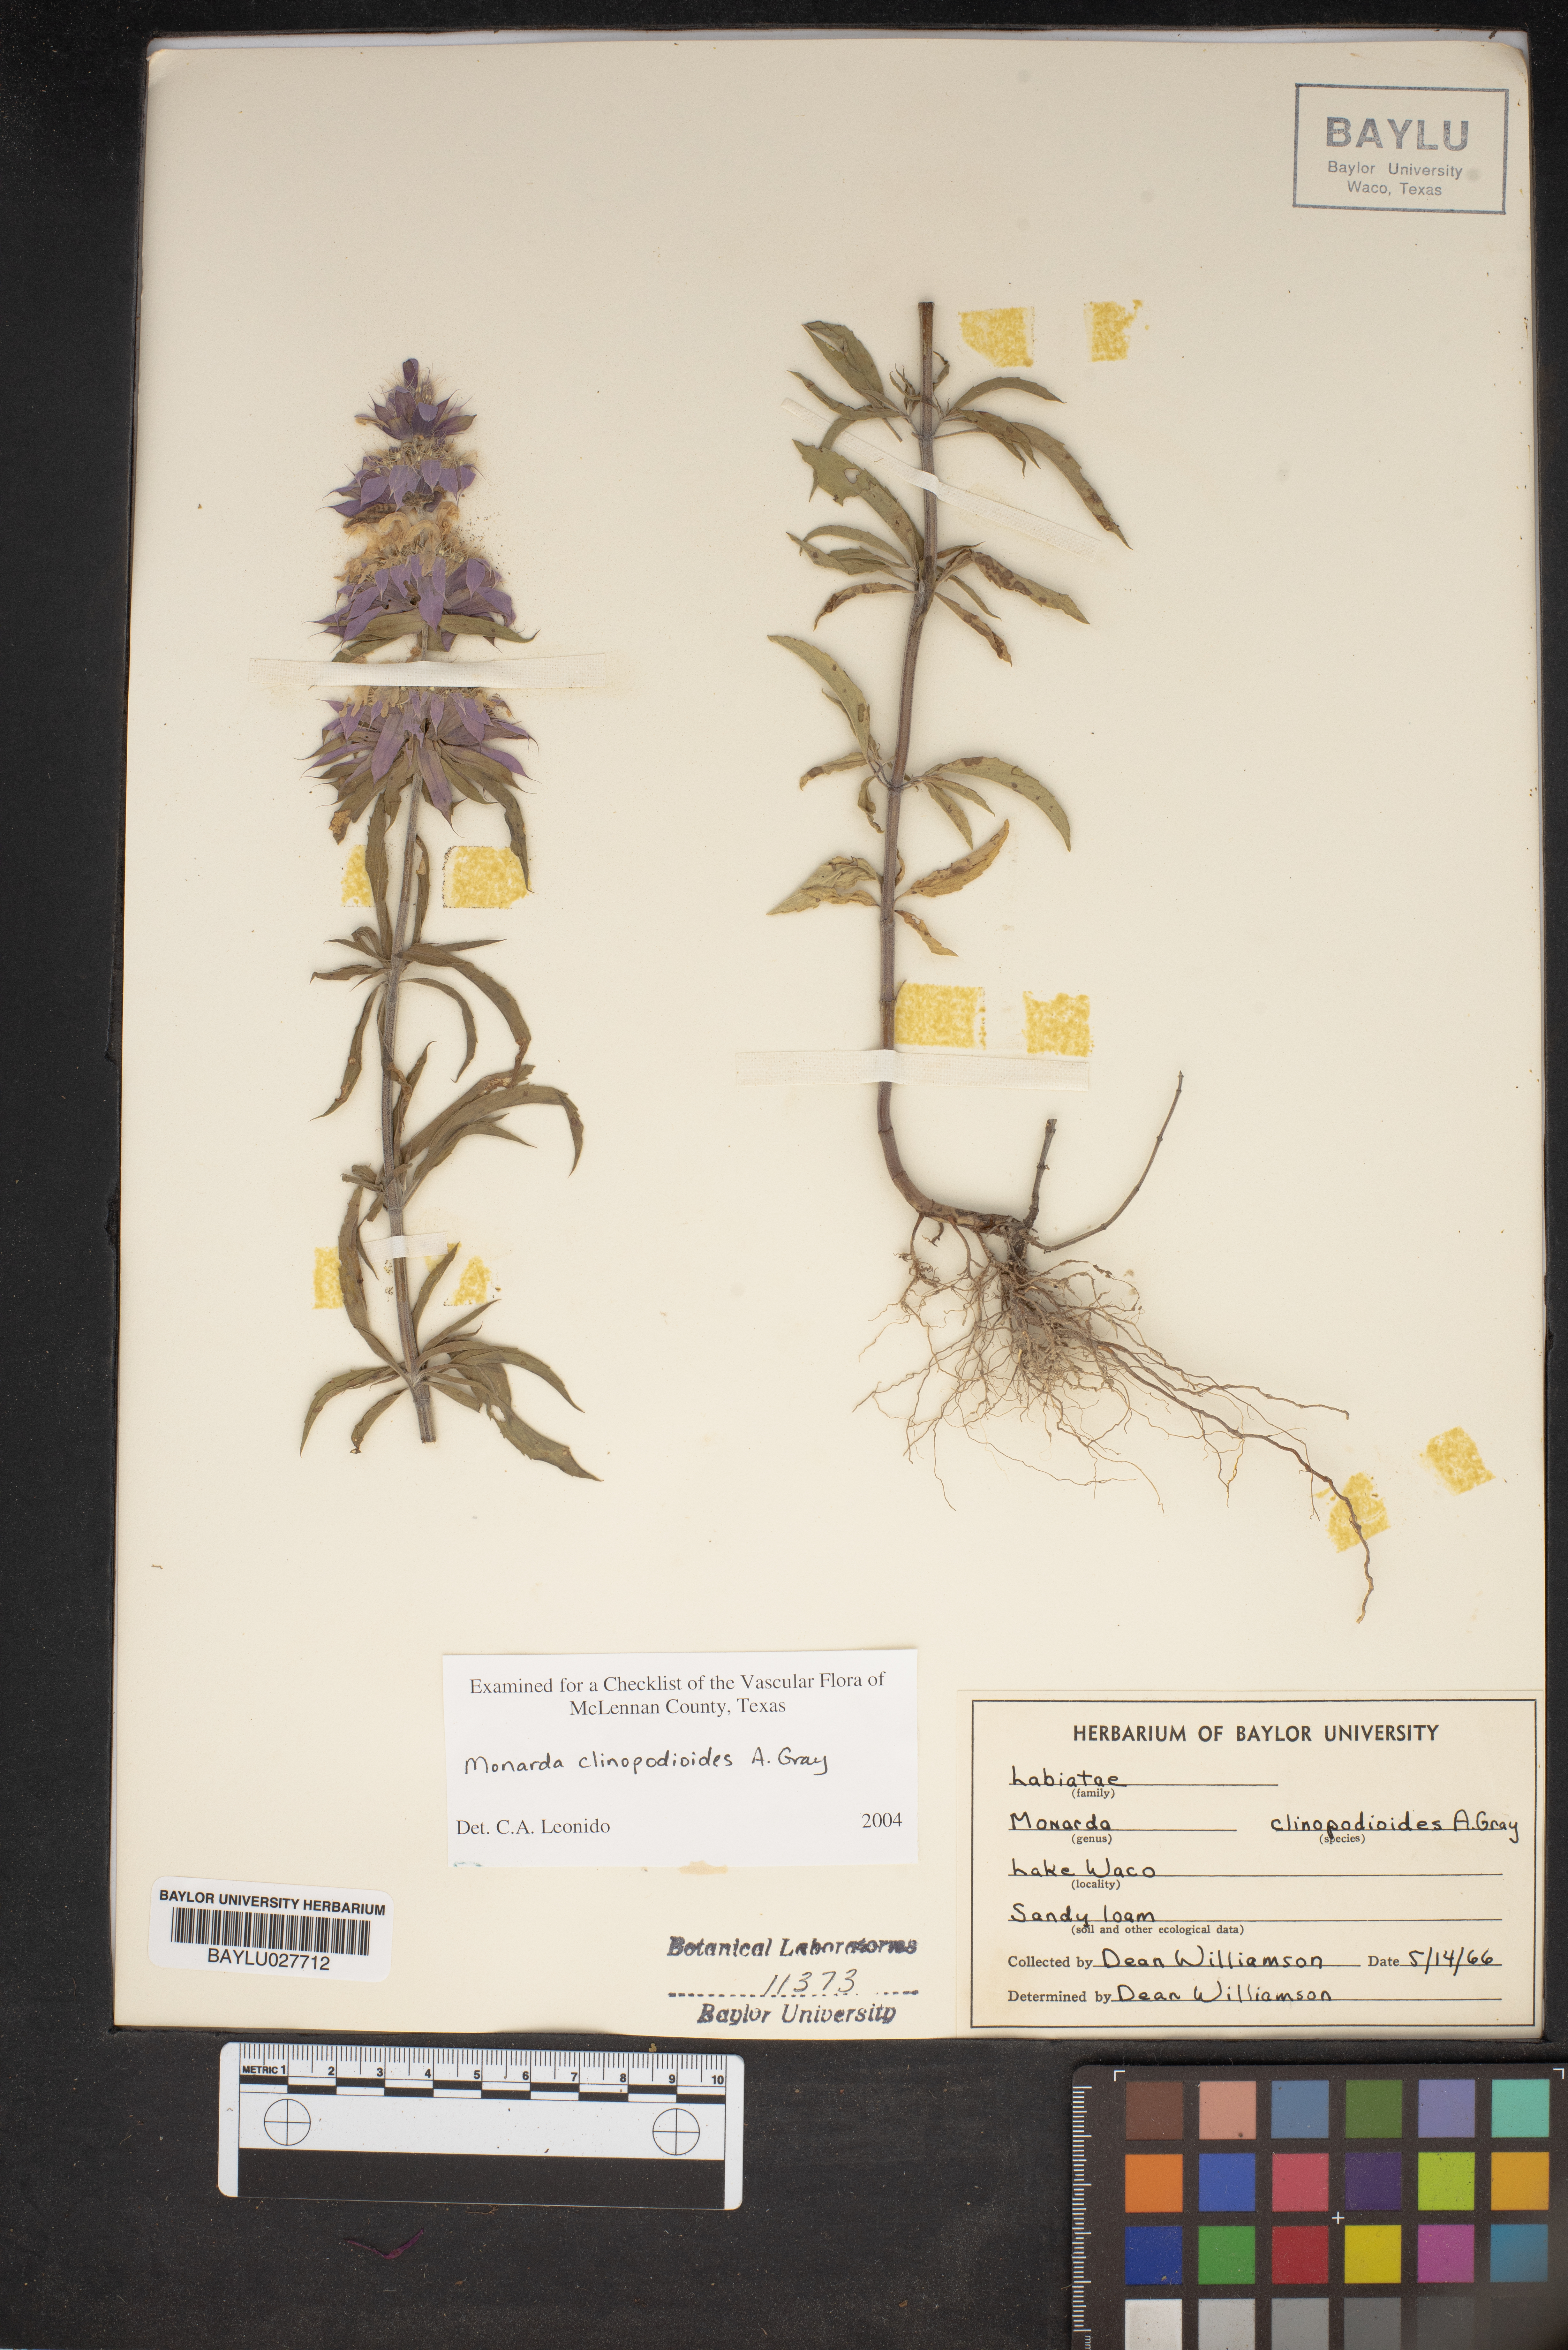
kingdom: Plantae
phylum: Tracheophyta
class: Magnoliopsida
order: Lamiales
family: Lamiaceae
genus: Monarda
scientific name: Monarda clinopodioides
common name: Basil beebalm
